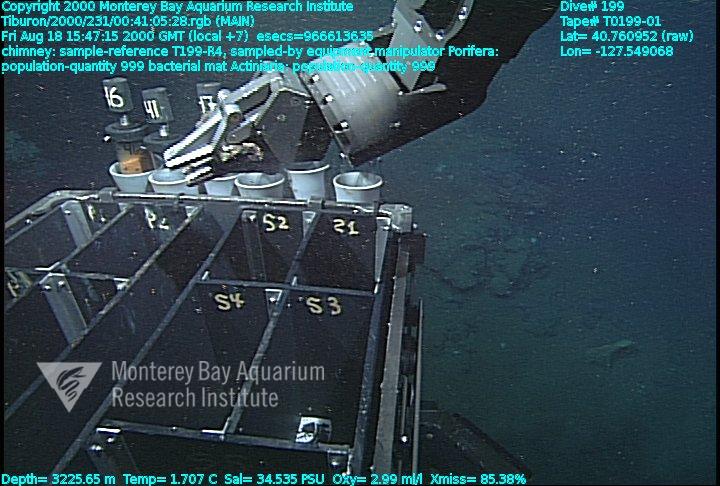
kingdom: Animalia
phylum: Porifera
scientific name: Porifera
